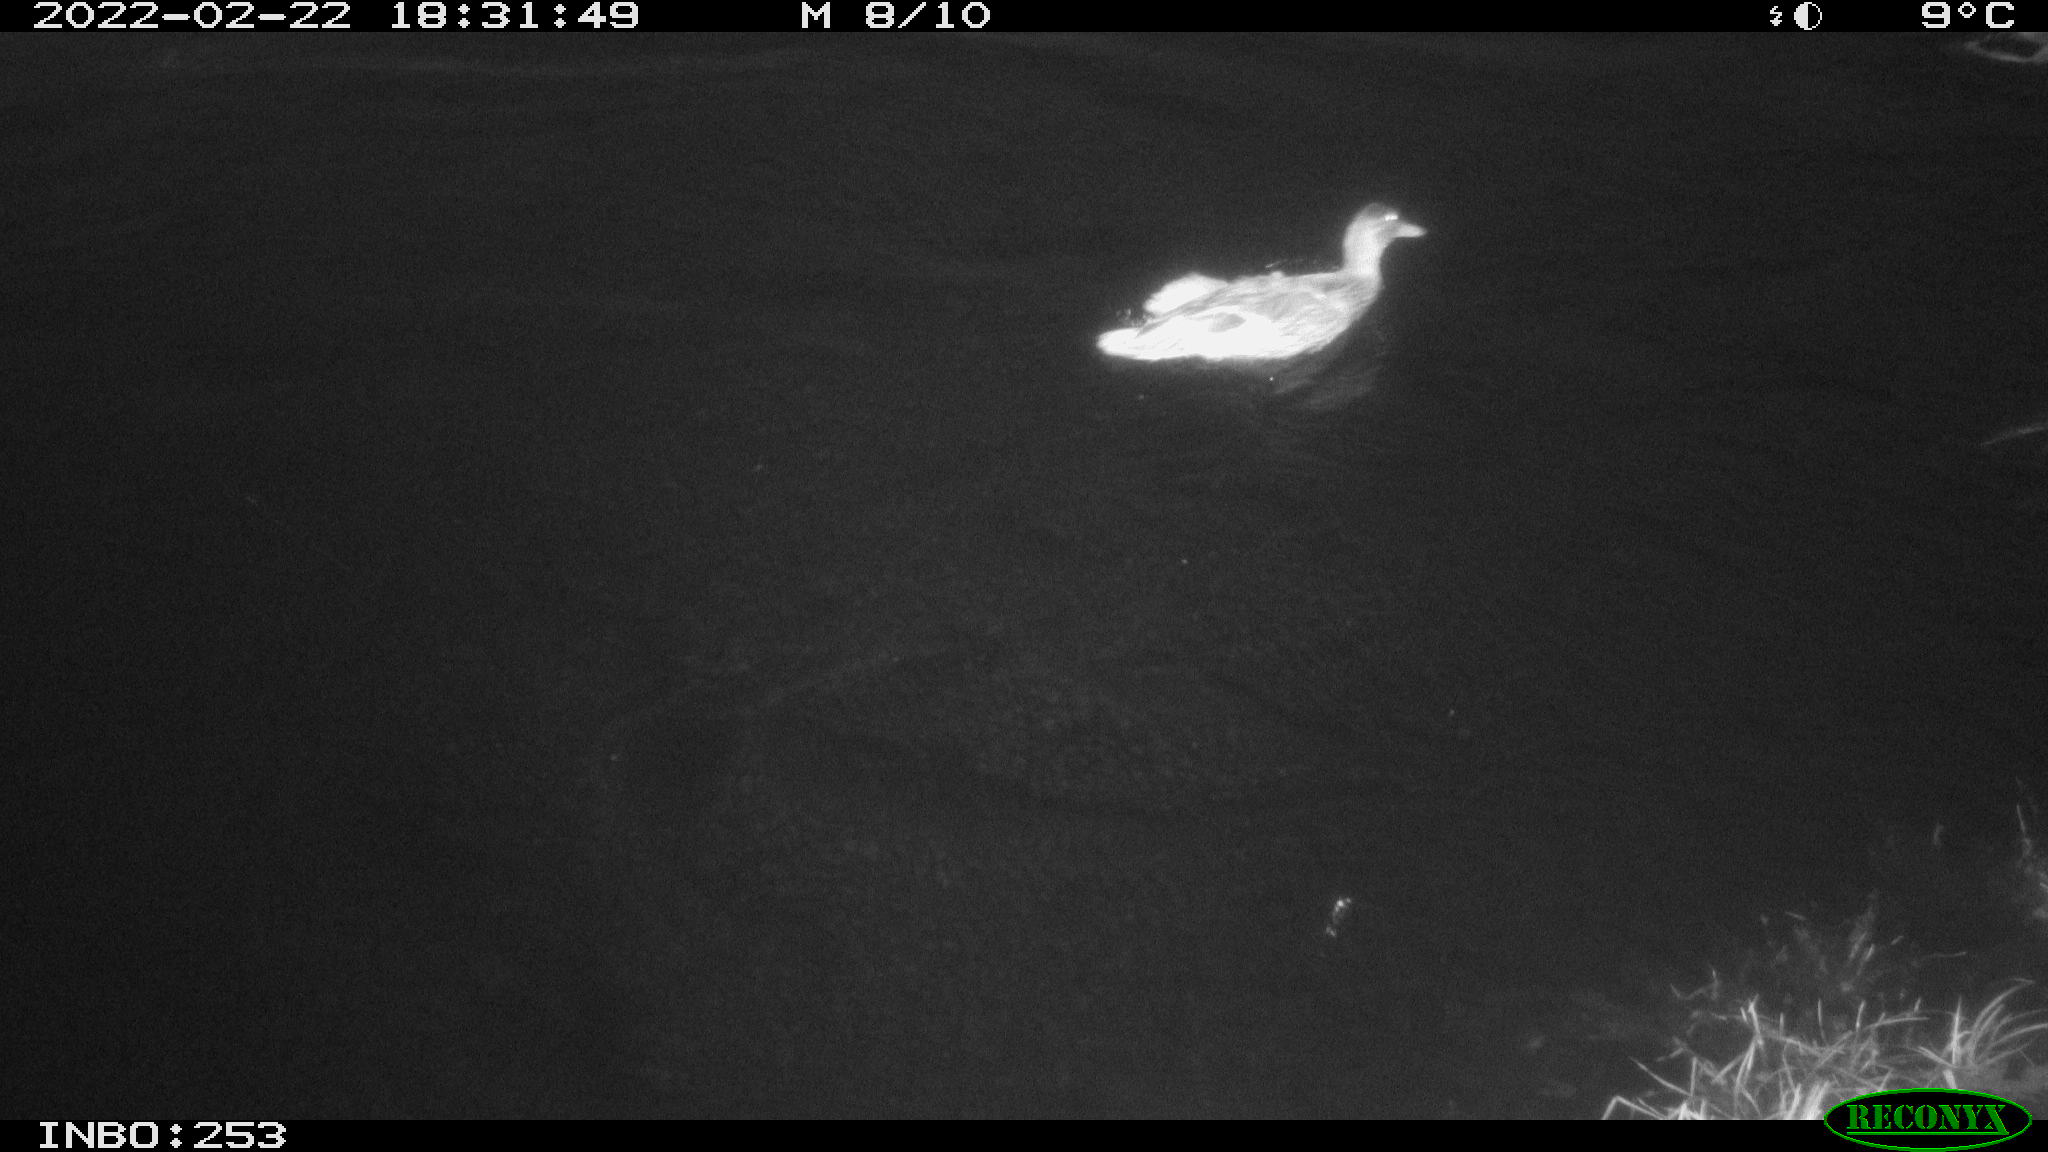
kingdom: Animalia
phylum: Chordata
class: Aves
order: Anseriformes
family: Anatidae
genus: Anas
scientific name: Anas platyrhynchos
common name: Mallard
